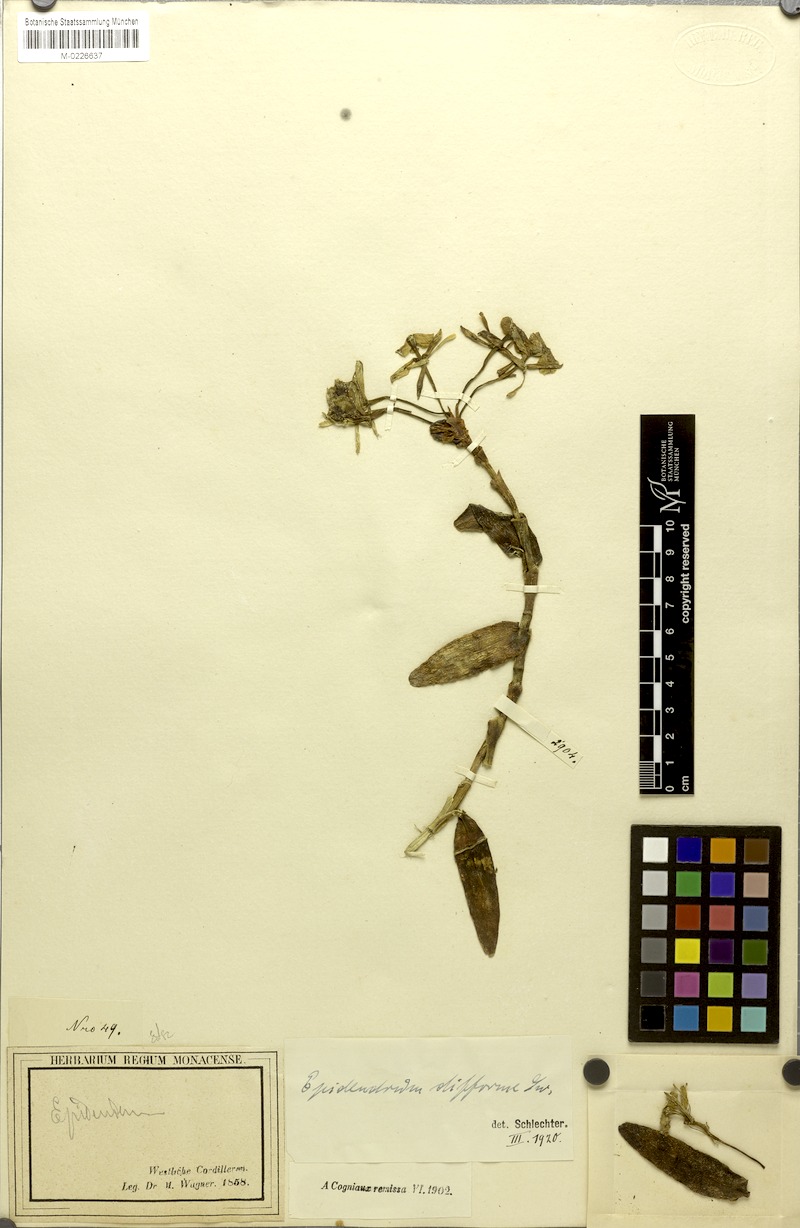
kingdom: Plantae
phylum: Tracheophyta
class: Liliopsida
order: Asparagales
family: Orchidaceae
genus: Epidendrum
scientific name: Epidendrum difforme
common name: Umbrella epidendrum
